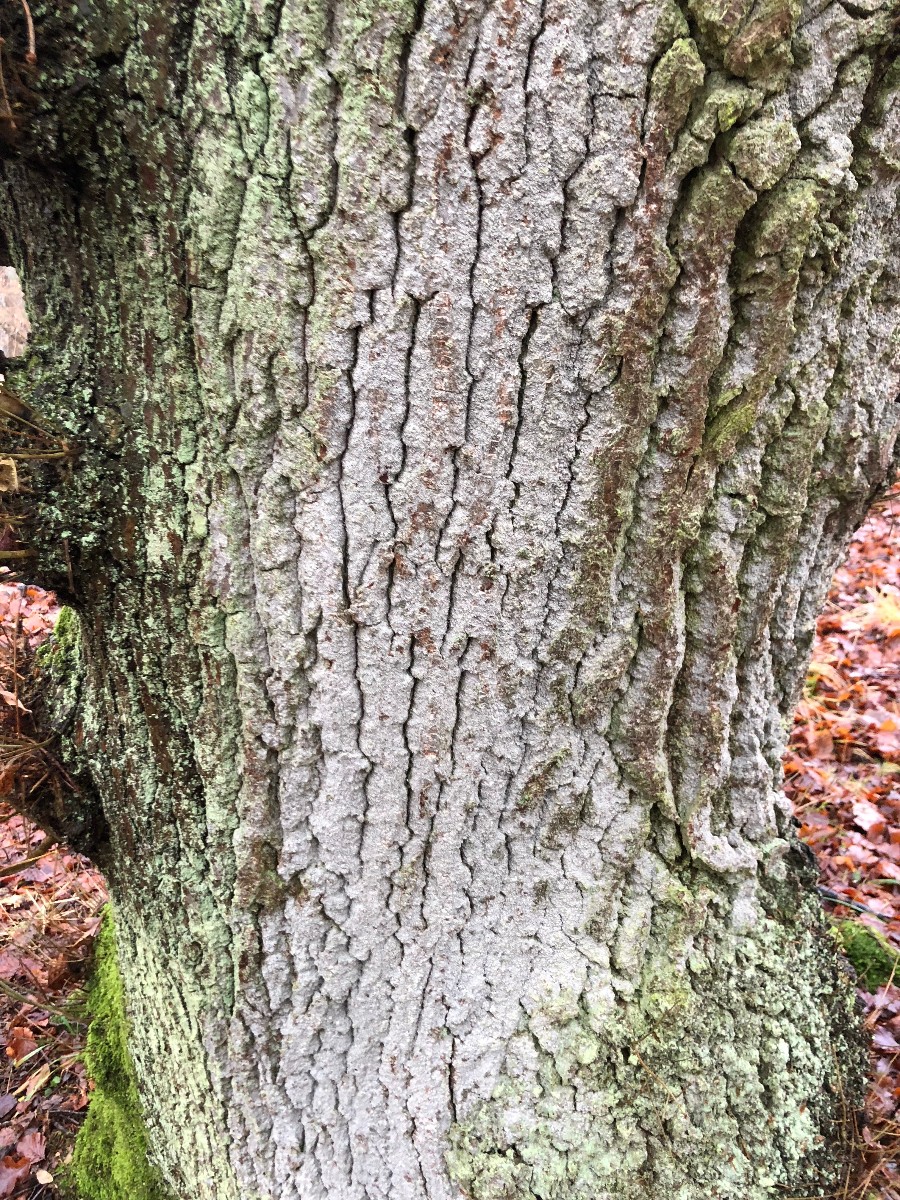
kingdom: Fungi
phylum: Ascomycota
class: Arthoniomycetes
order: Arthoniales
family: Roccellaceae
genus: Lecanactis
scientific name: Lecanactis abietina
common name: grå dugskivelav
